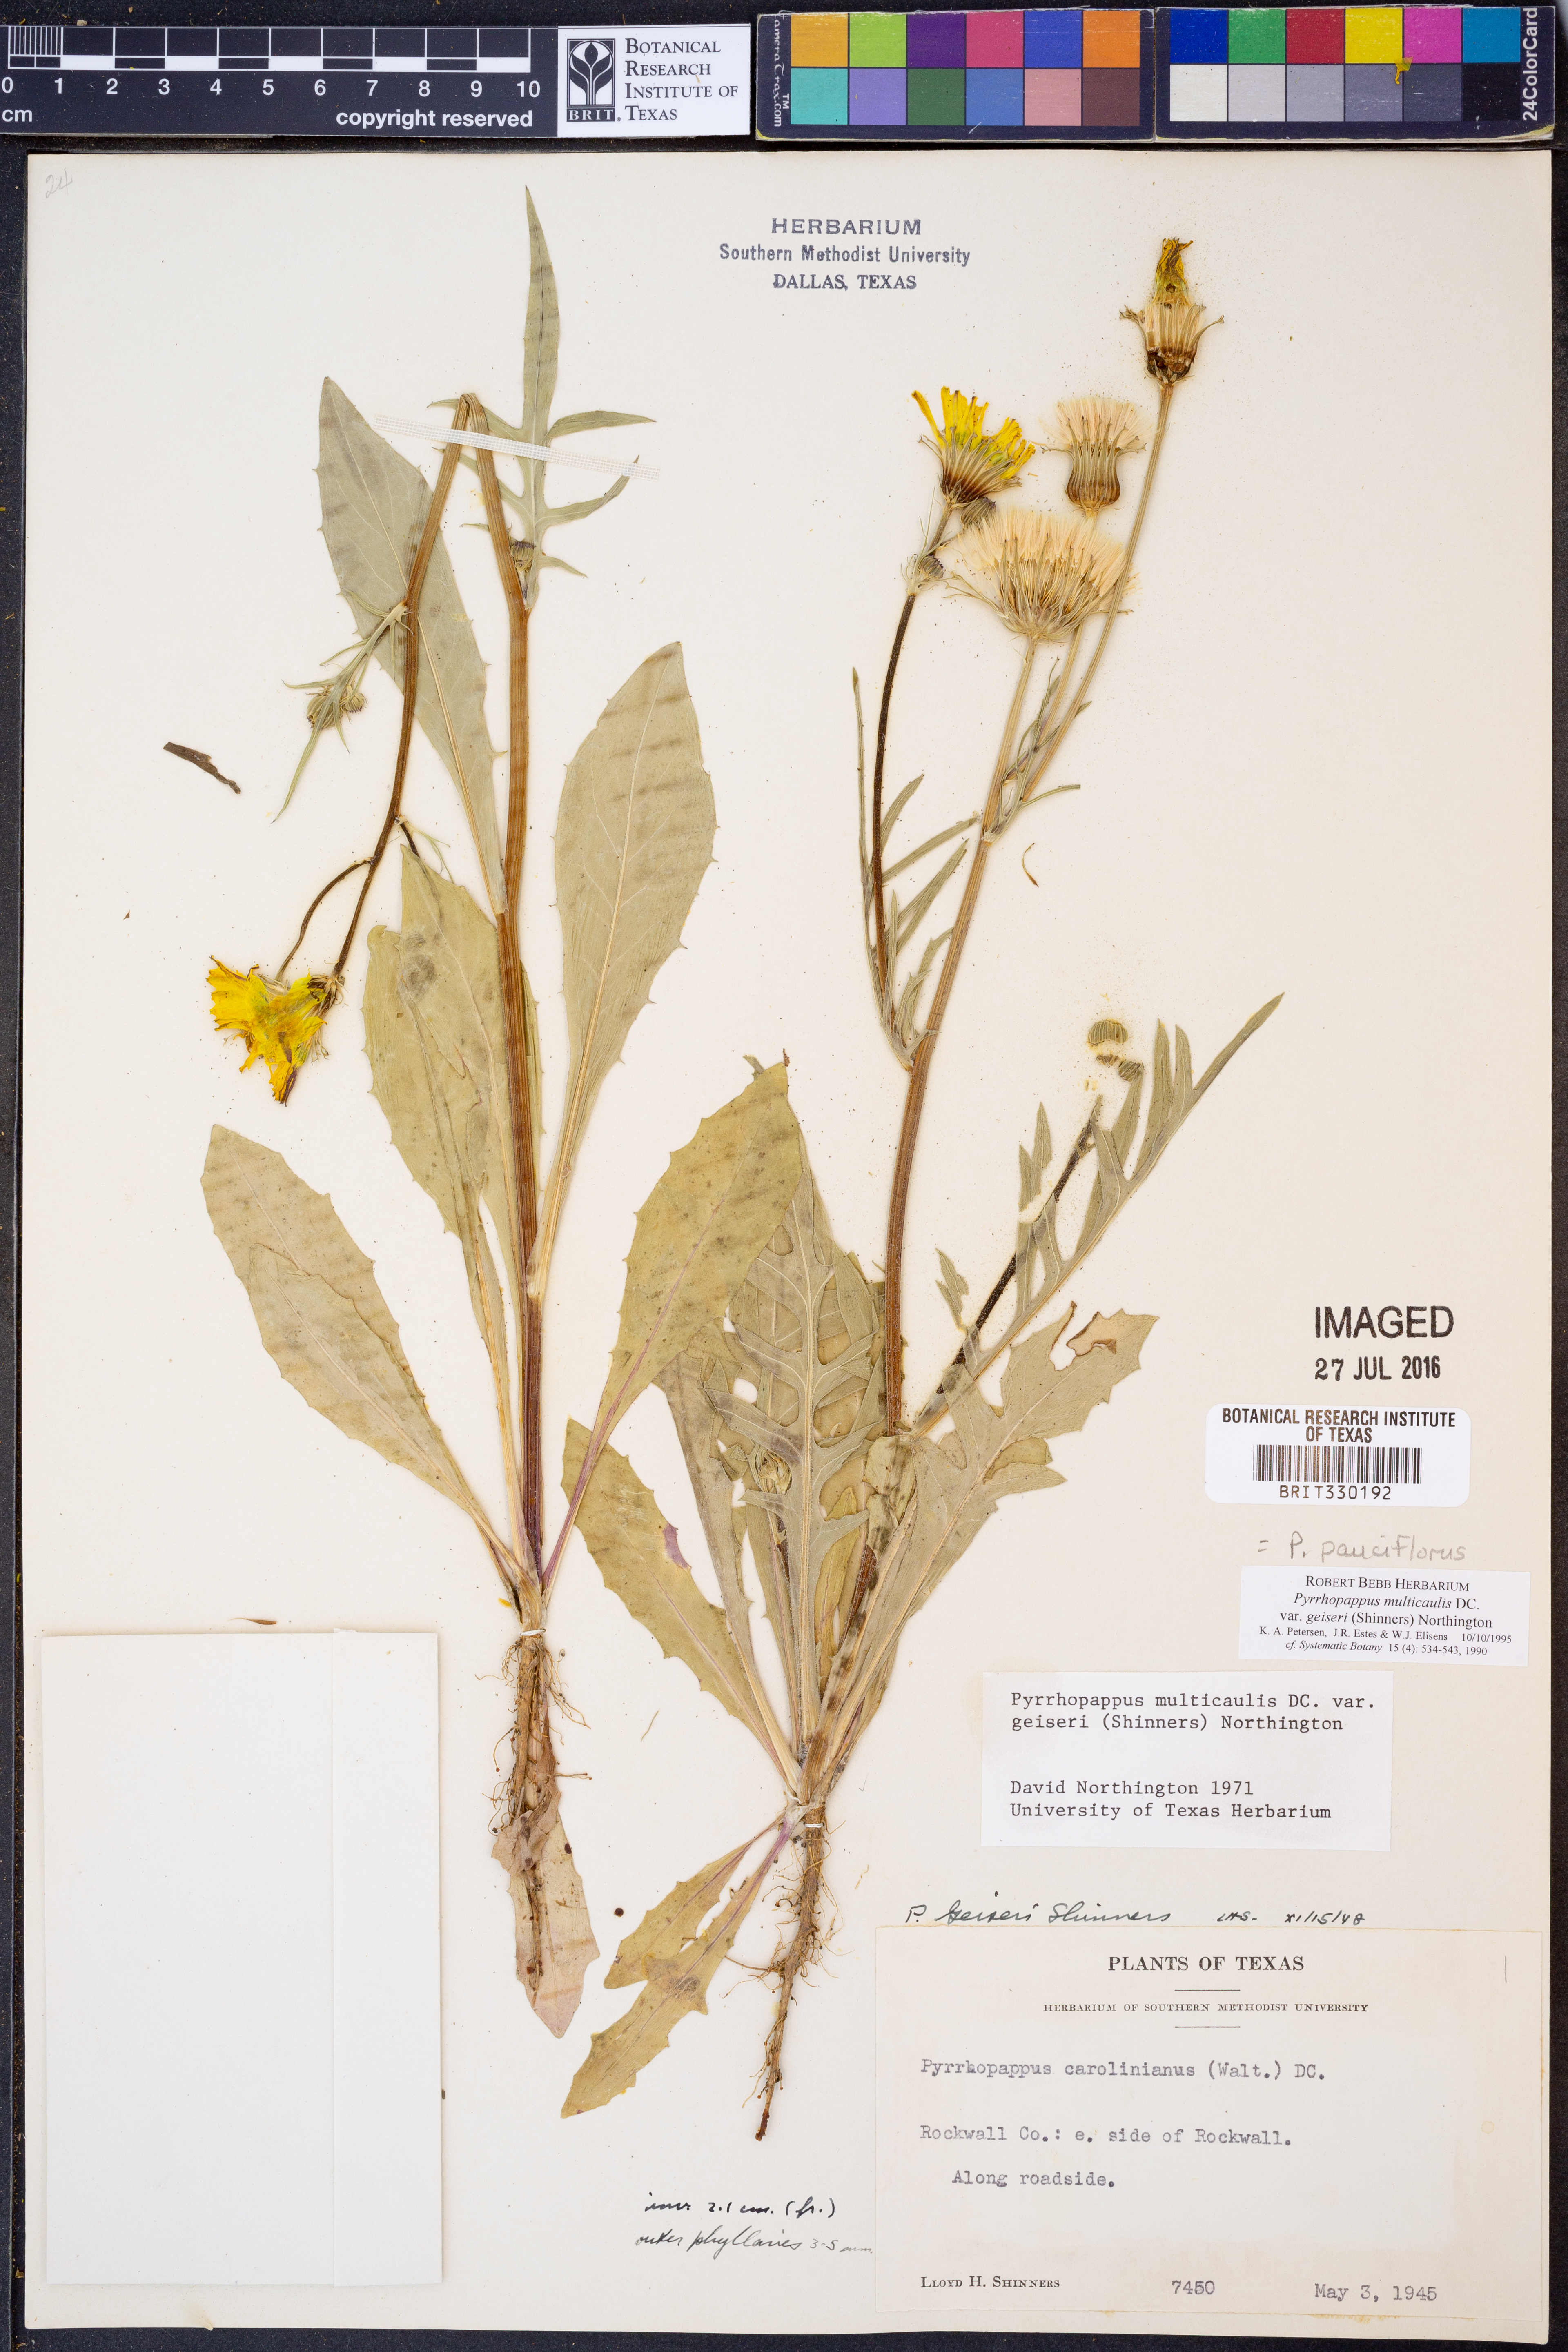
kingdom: Plantae
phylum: Tracheophyta
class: Magnoliopsida
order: Asterales
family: Asteraceae
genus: Pyrrhopappus
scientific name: Pyrrhopappus pauciflorus
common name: Texas false dandelion
